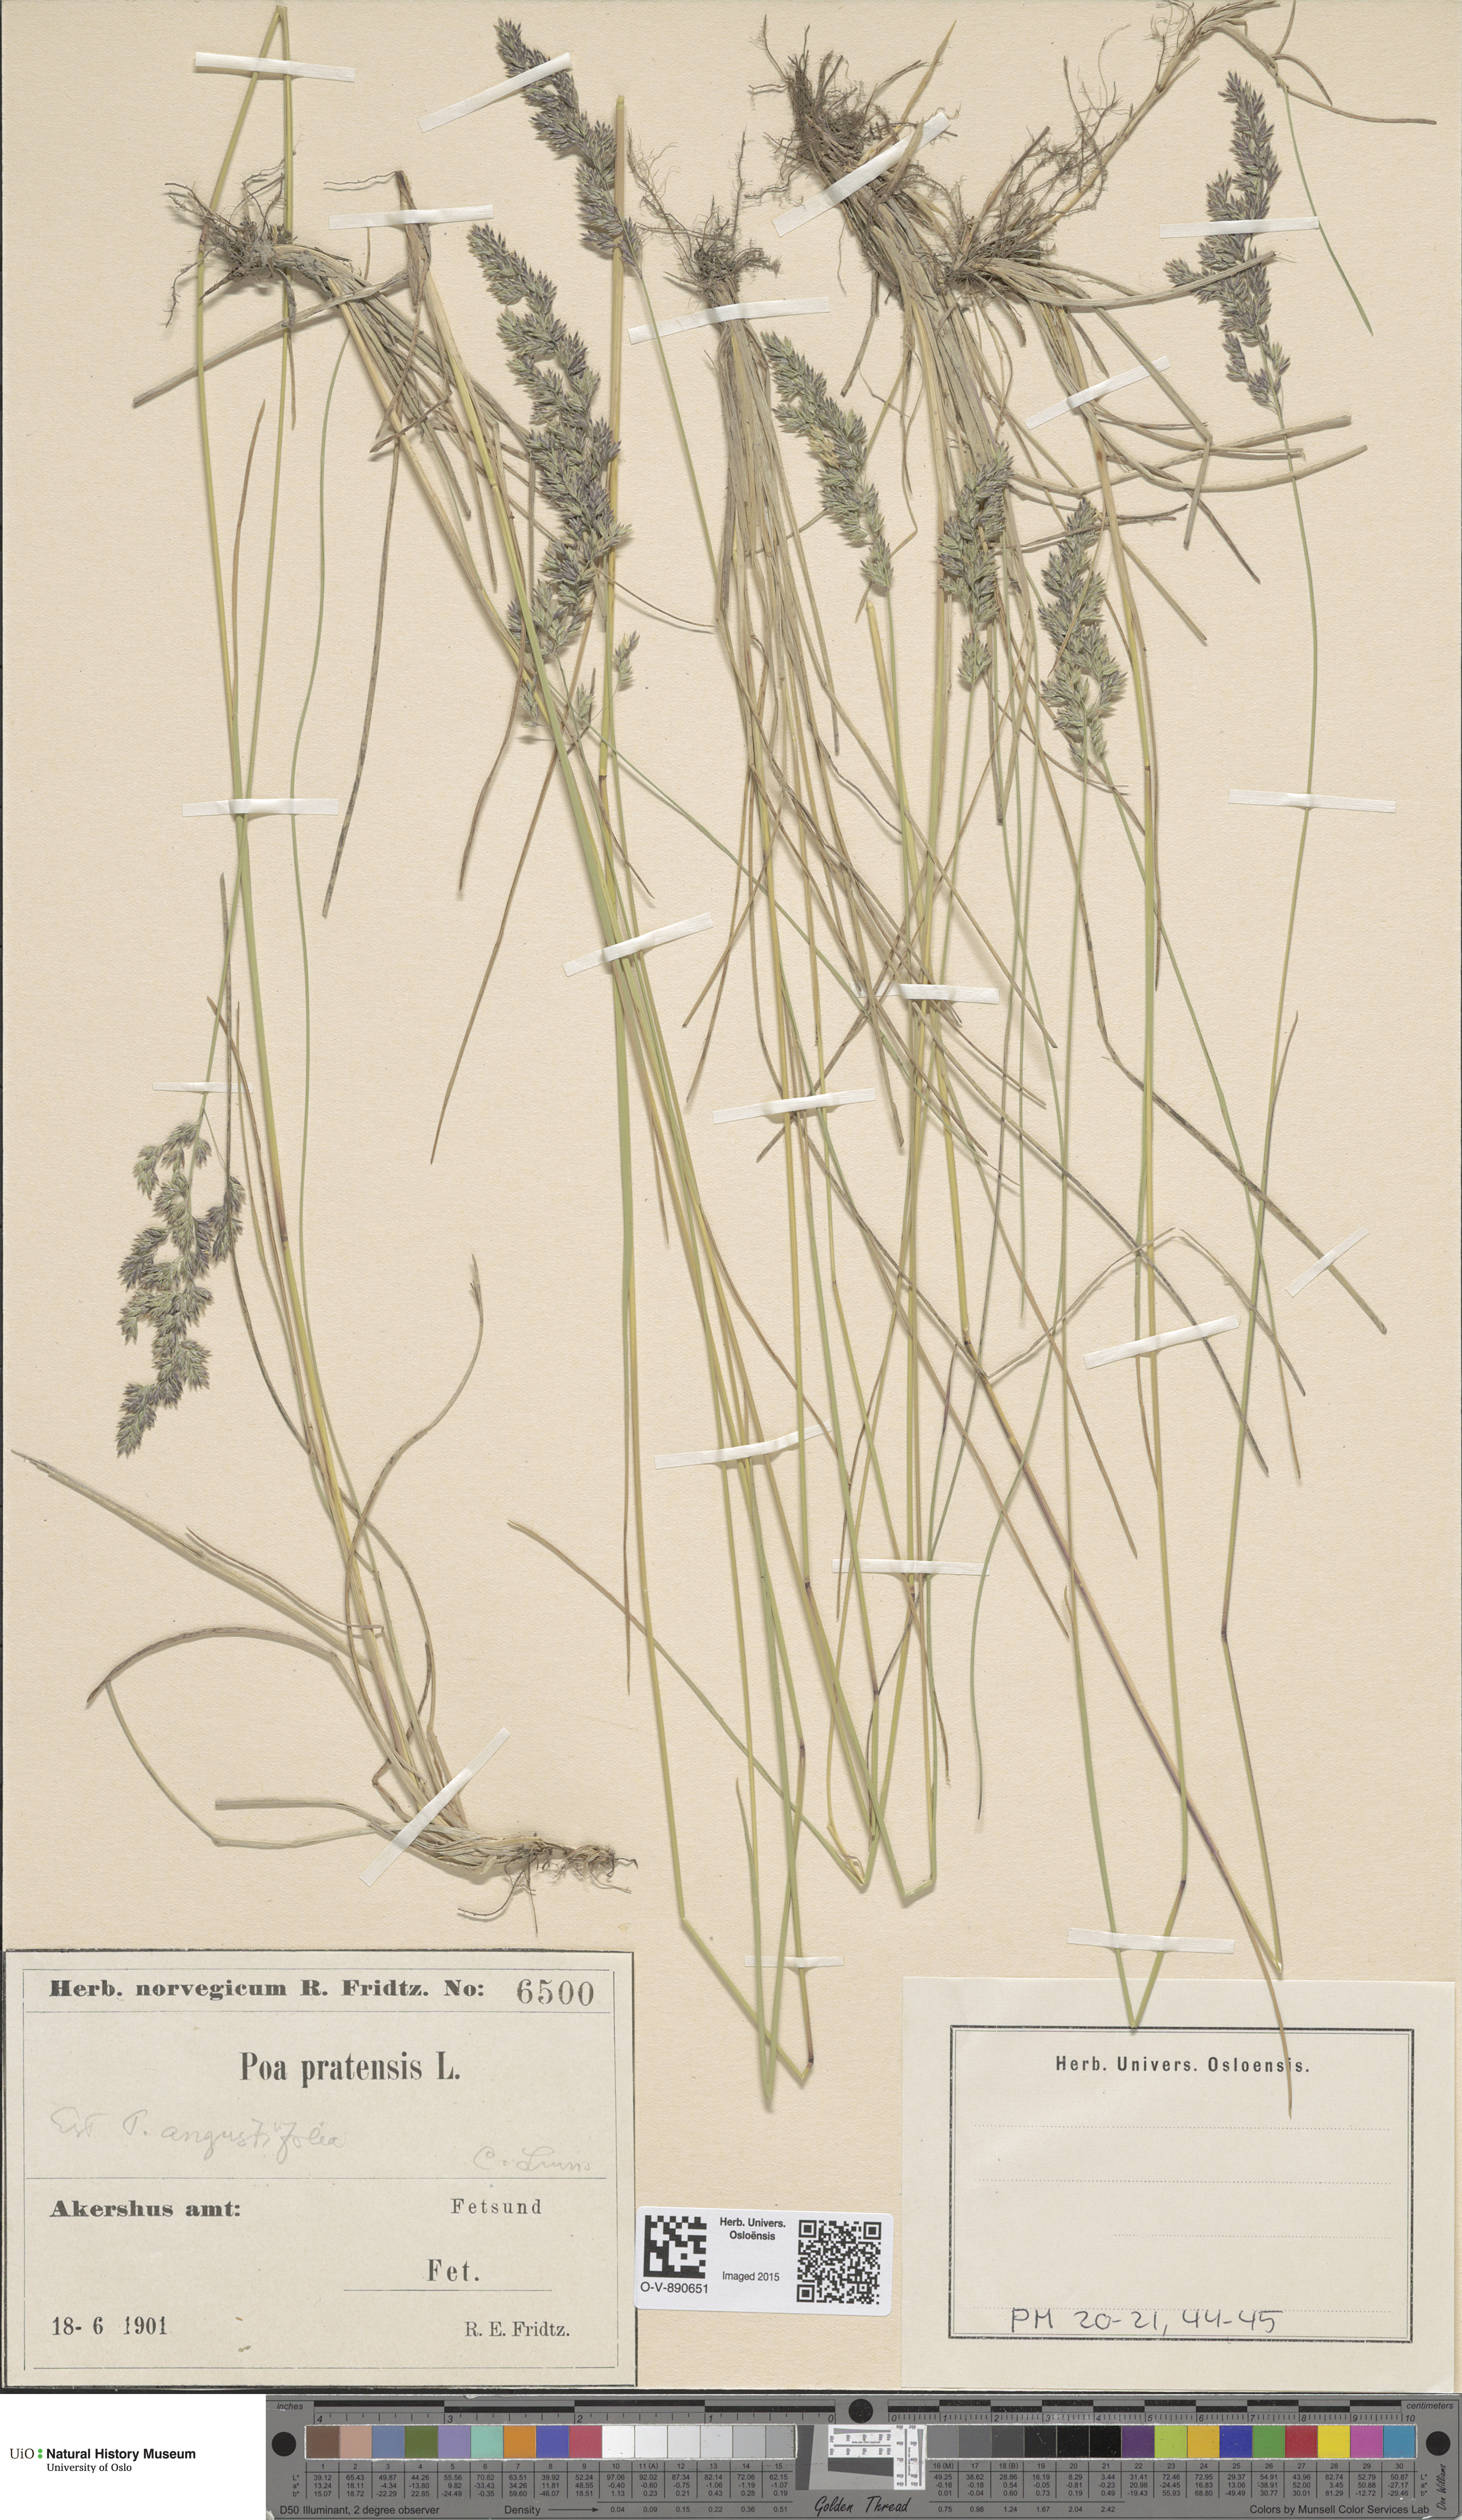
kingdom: Plantae
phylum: Tracheophyta
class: Liliopsida
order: Poales
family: Poaceae
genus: Poa
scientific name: Poa angustifolia
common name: Narrow-leaved meadow-grass
